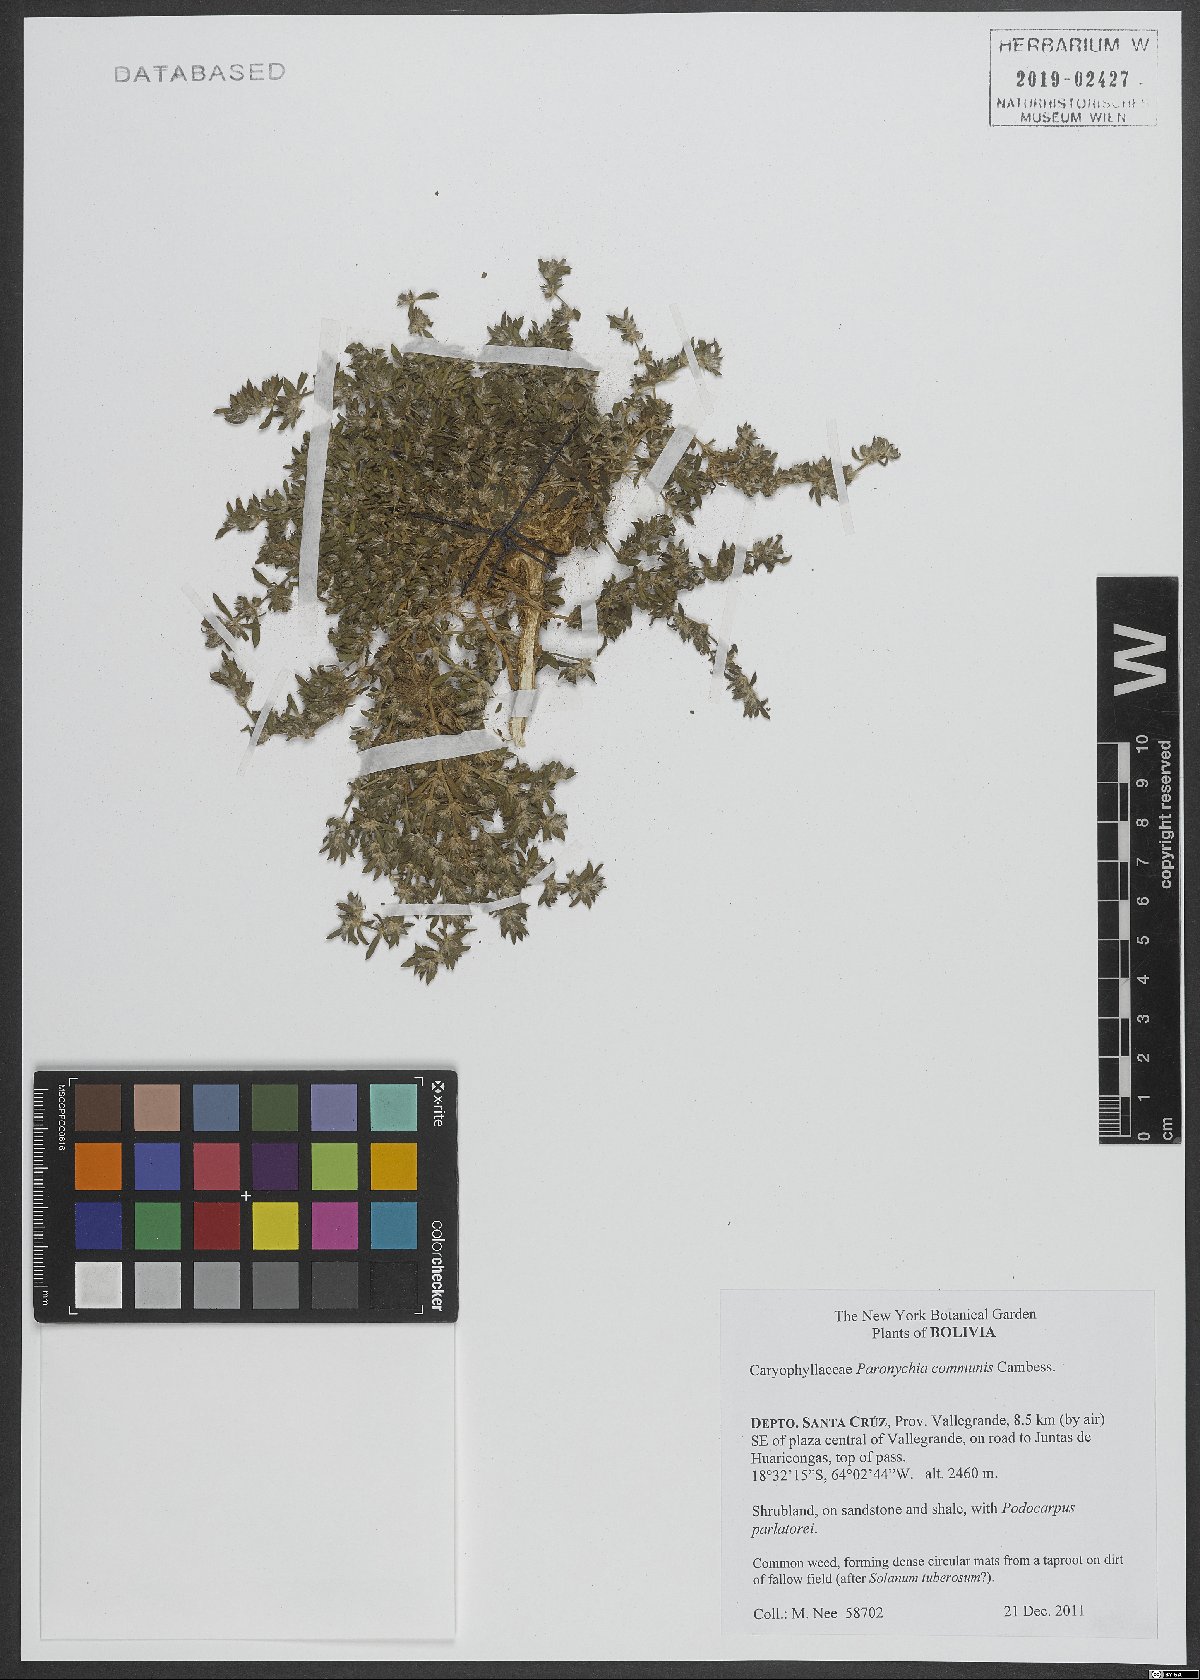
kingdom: Plantae
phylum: Tracheophyta
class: Magnoliopsida
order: Myrtales
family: Melastomataceae
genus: Henriettea
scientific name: Henriettea
